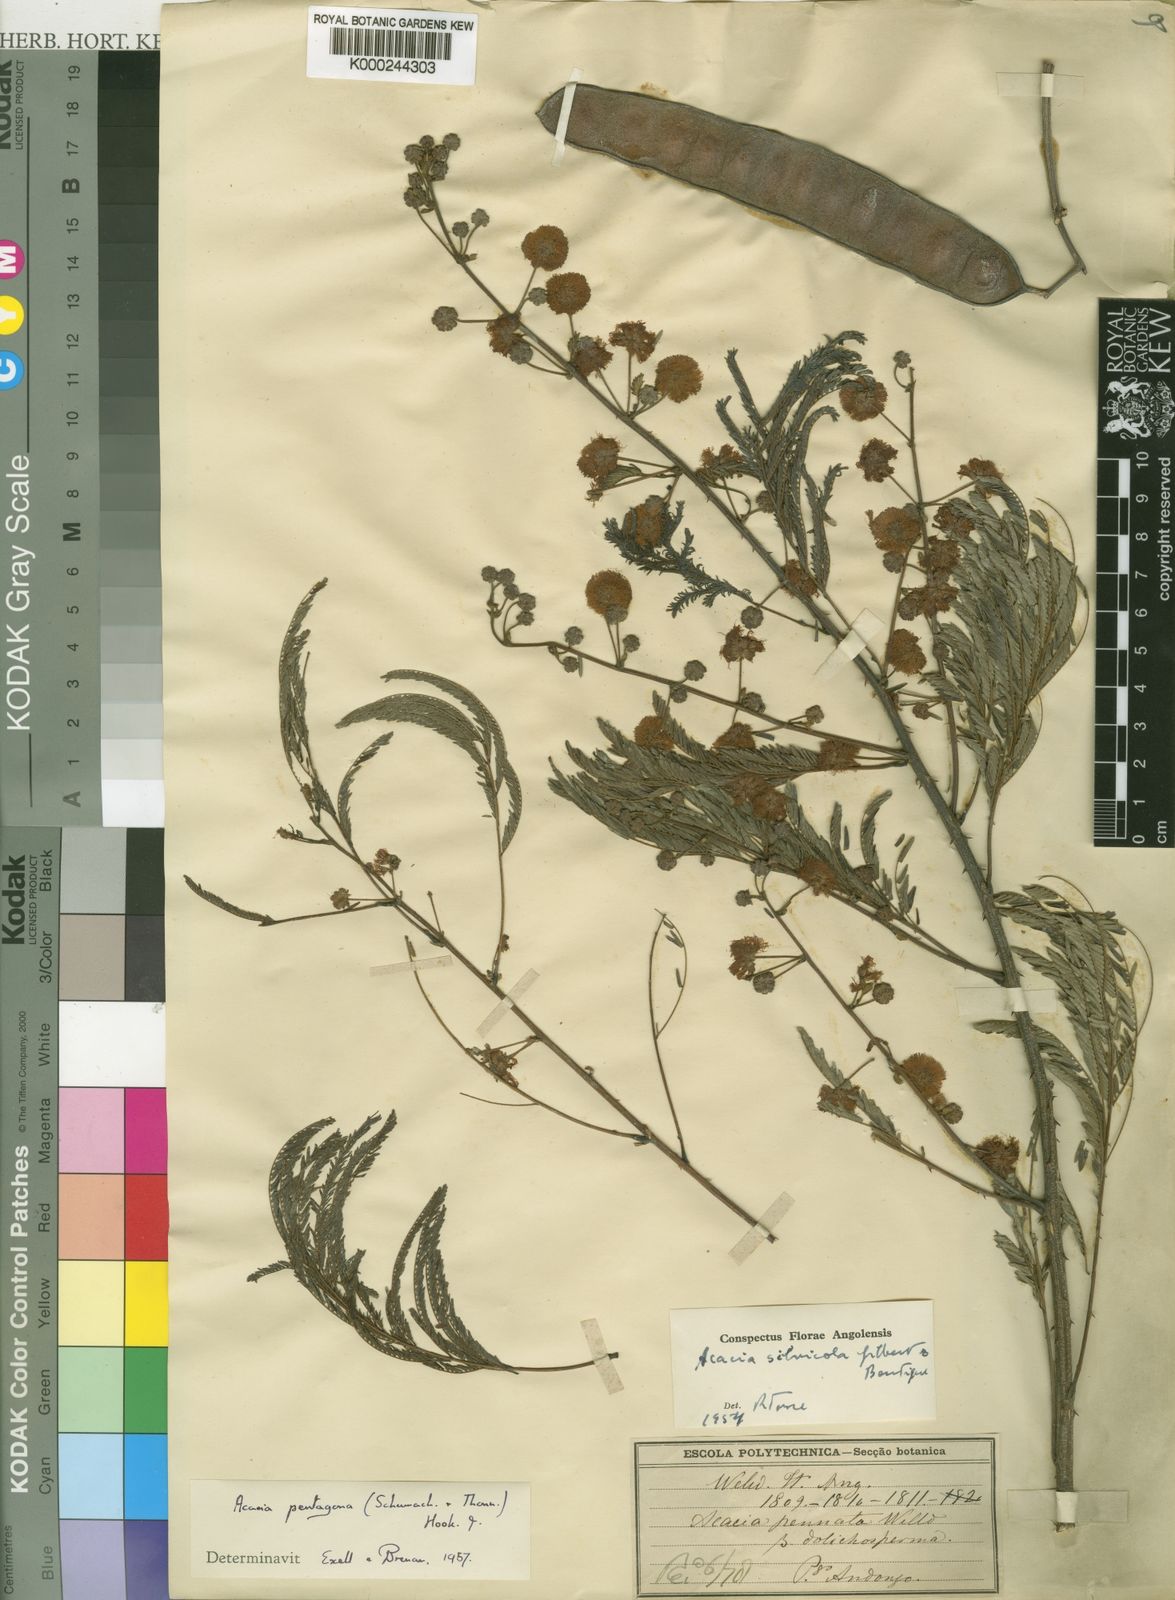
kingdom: Plantae
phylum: Tracheophyta
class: Magnoliopsida
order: Fabales
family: Fabaceae
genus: Senegalia
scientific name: Senegalia pentagona
